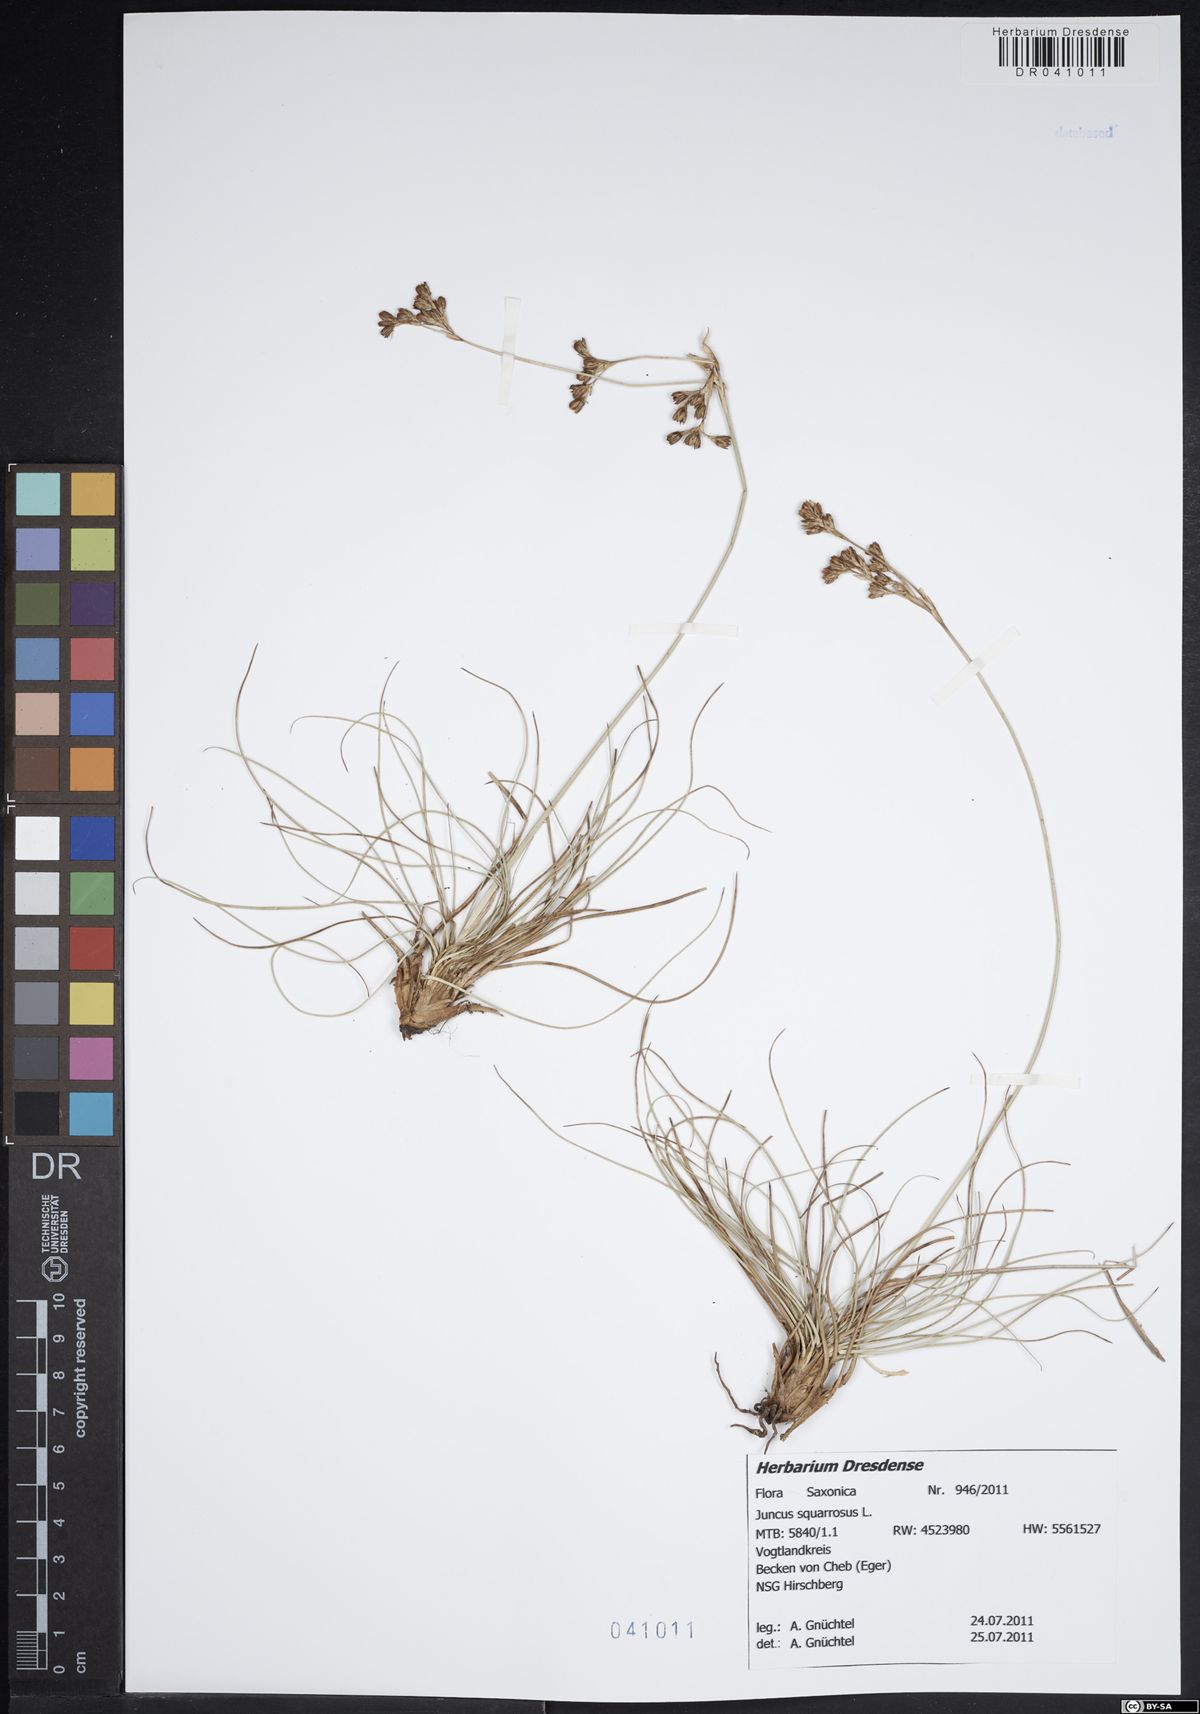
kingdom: Plantae
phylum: Tracheophyta
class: Liliopsida
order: Poales
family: Juncaceae
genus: Juncus
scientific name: Juncus squarrosus
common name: Heath rush
